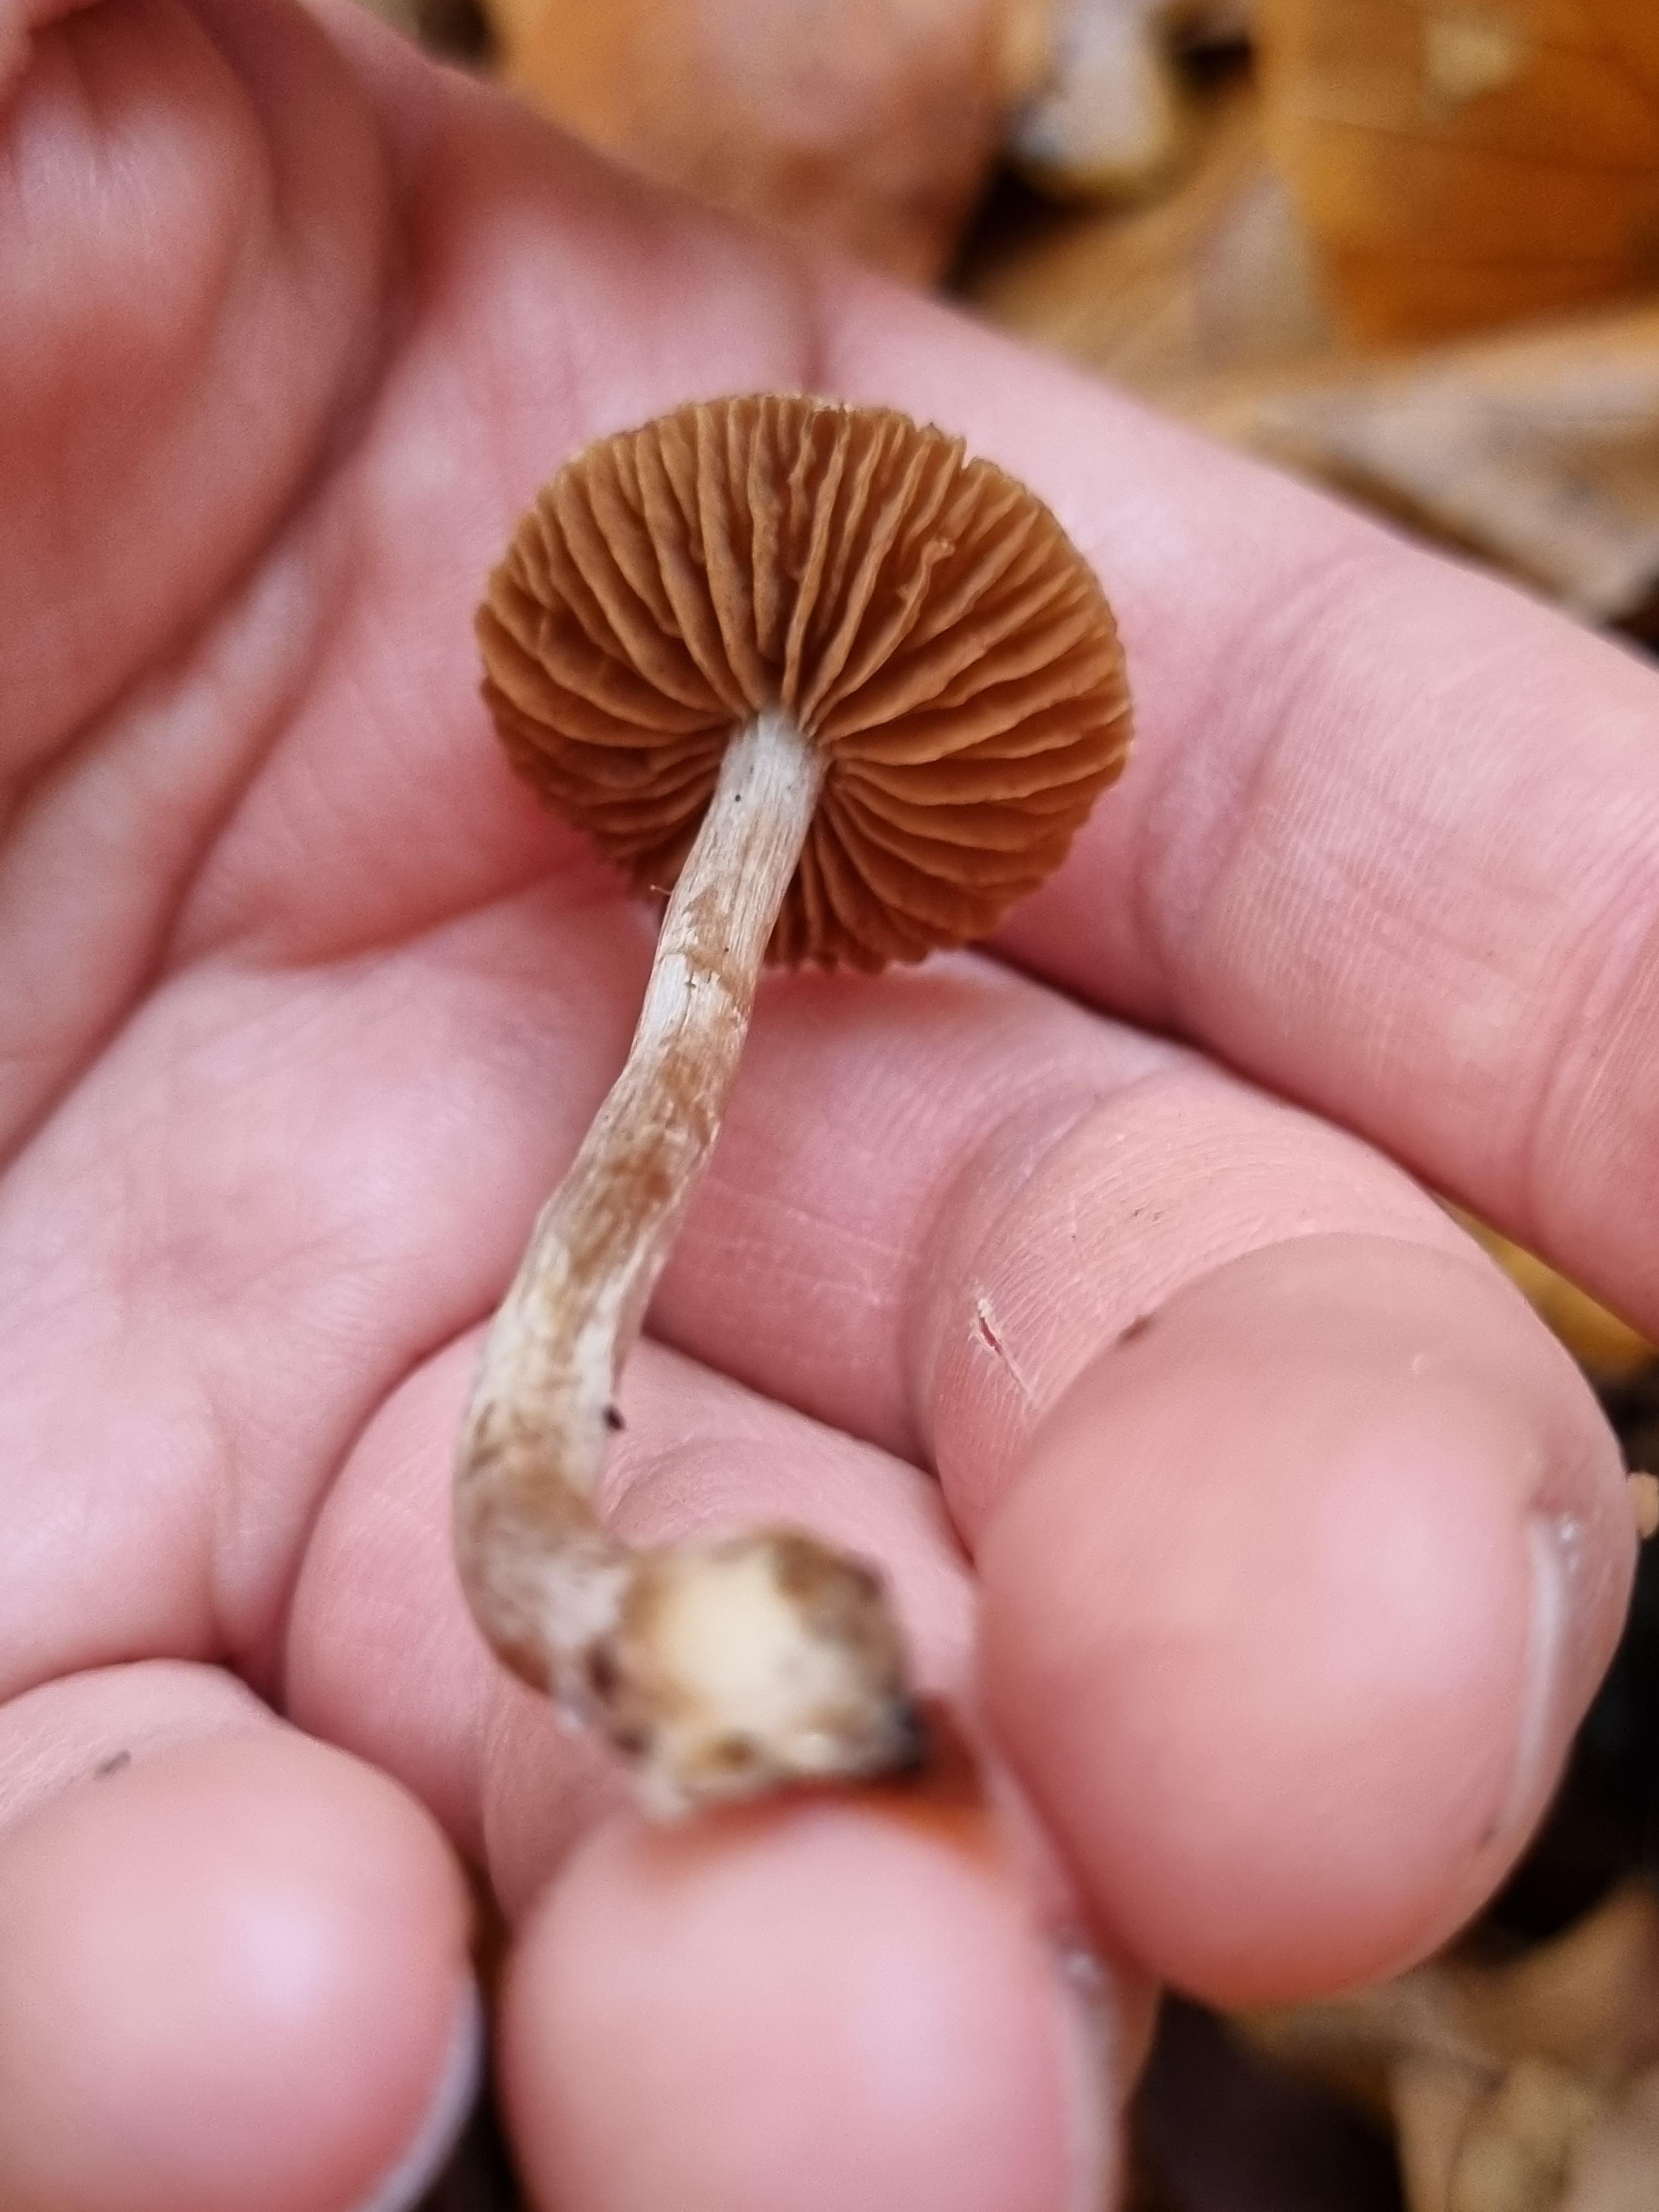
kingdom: Fungi
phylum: Basidiomycota
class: Agaricomycetes
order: Agaricales
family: Cortinariaceae
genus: Cortinarius
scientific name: Cortinarius
